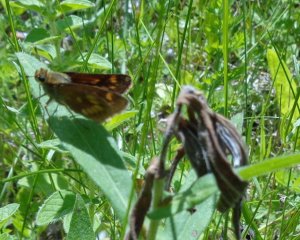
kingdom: Animalia
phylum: Arthropoda
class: Insecta
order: Lepidoptera
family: Hesperiidae
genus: Polites
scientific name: Polites
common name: Long Dash Skipper
